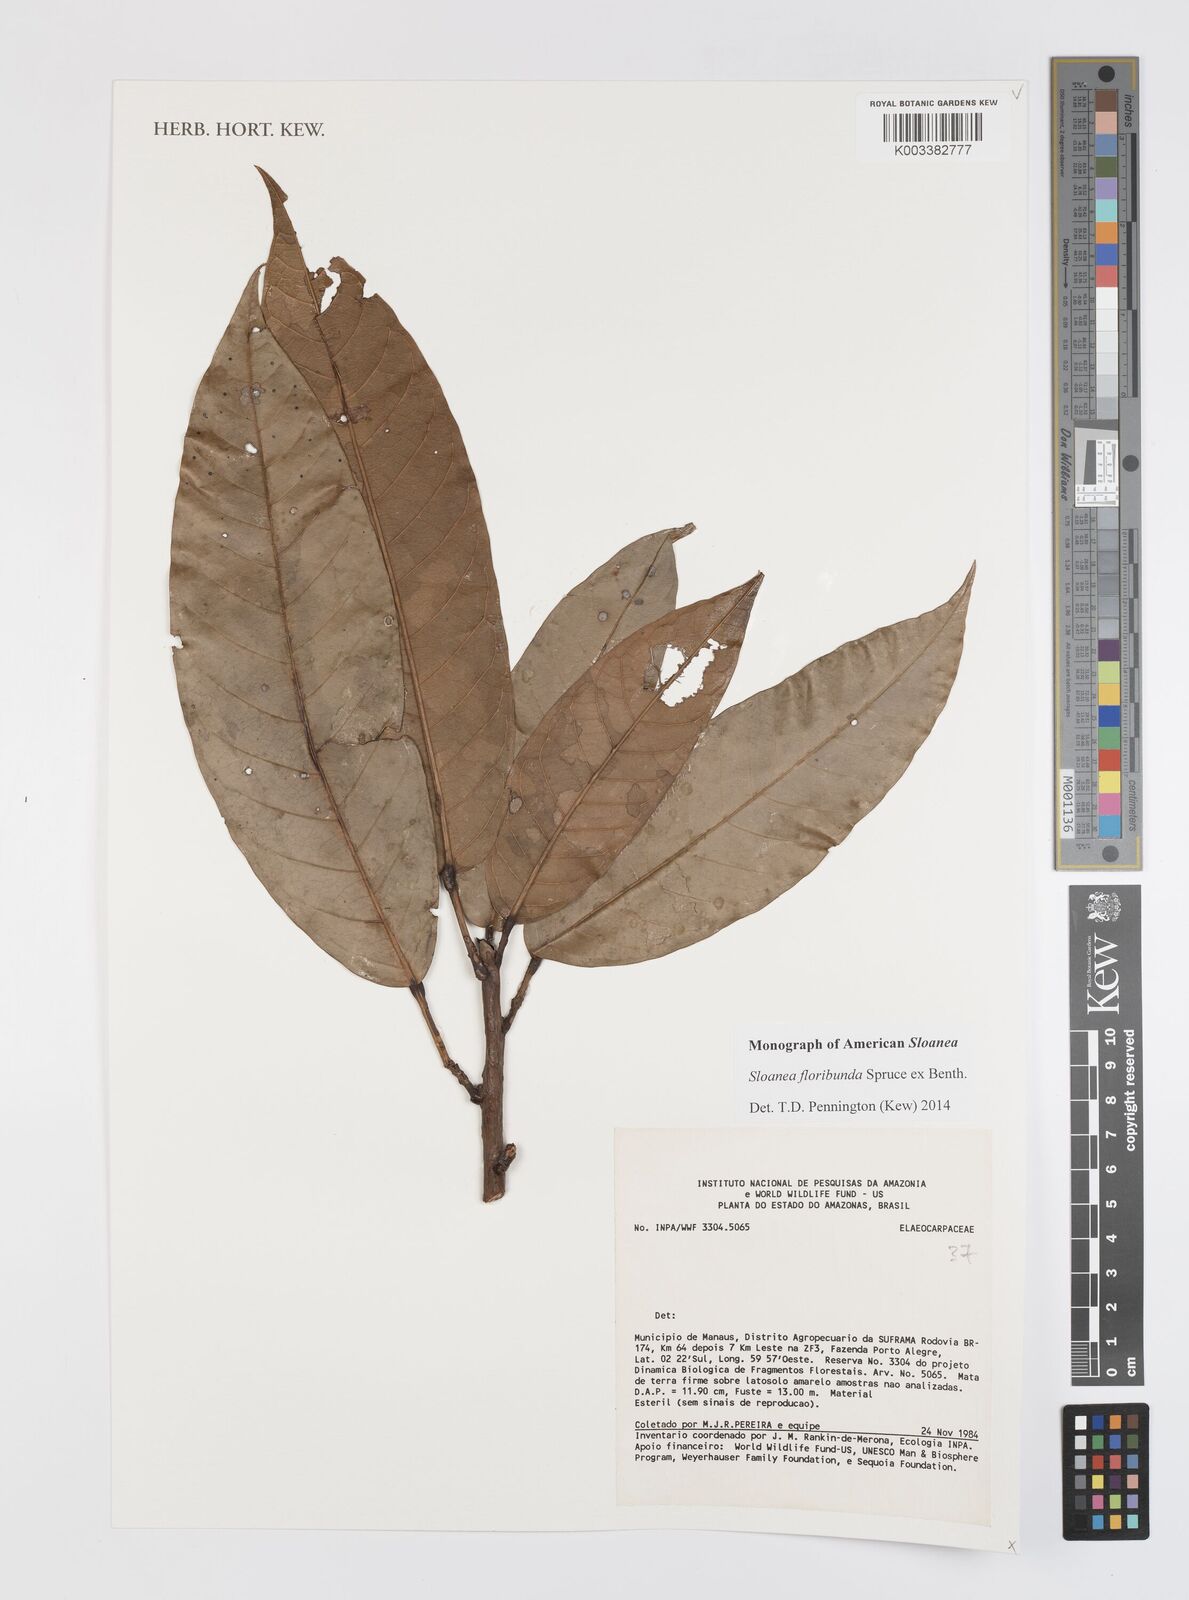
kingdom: Plantae
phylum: Tracheophyta
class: Magnoliopsida
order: Oxalidales
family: Elaeocarpaceae
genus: Sloanea
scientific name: Sloanea floribunda
